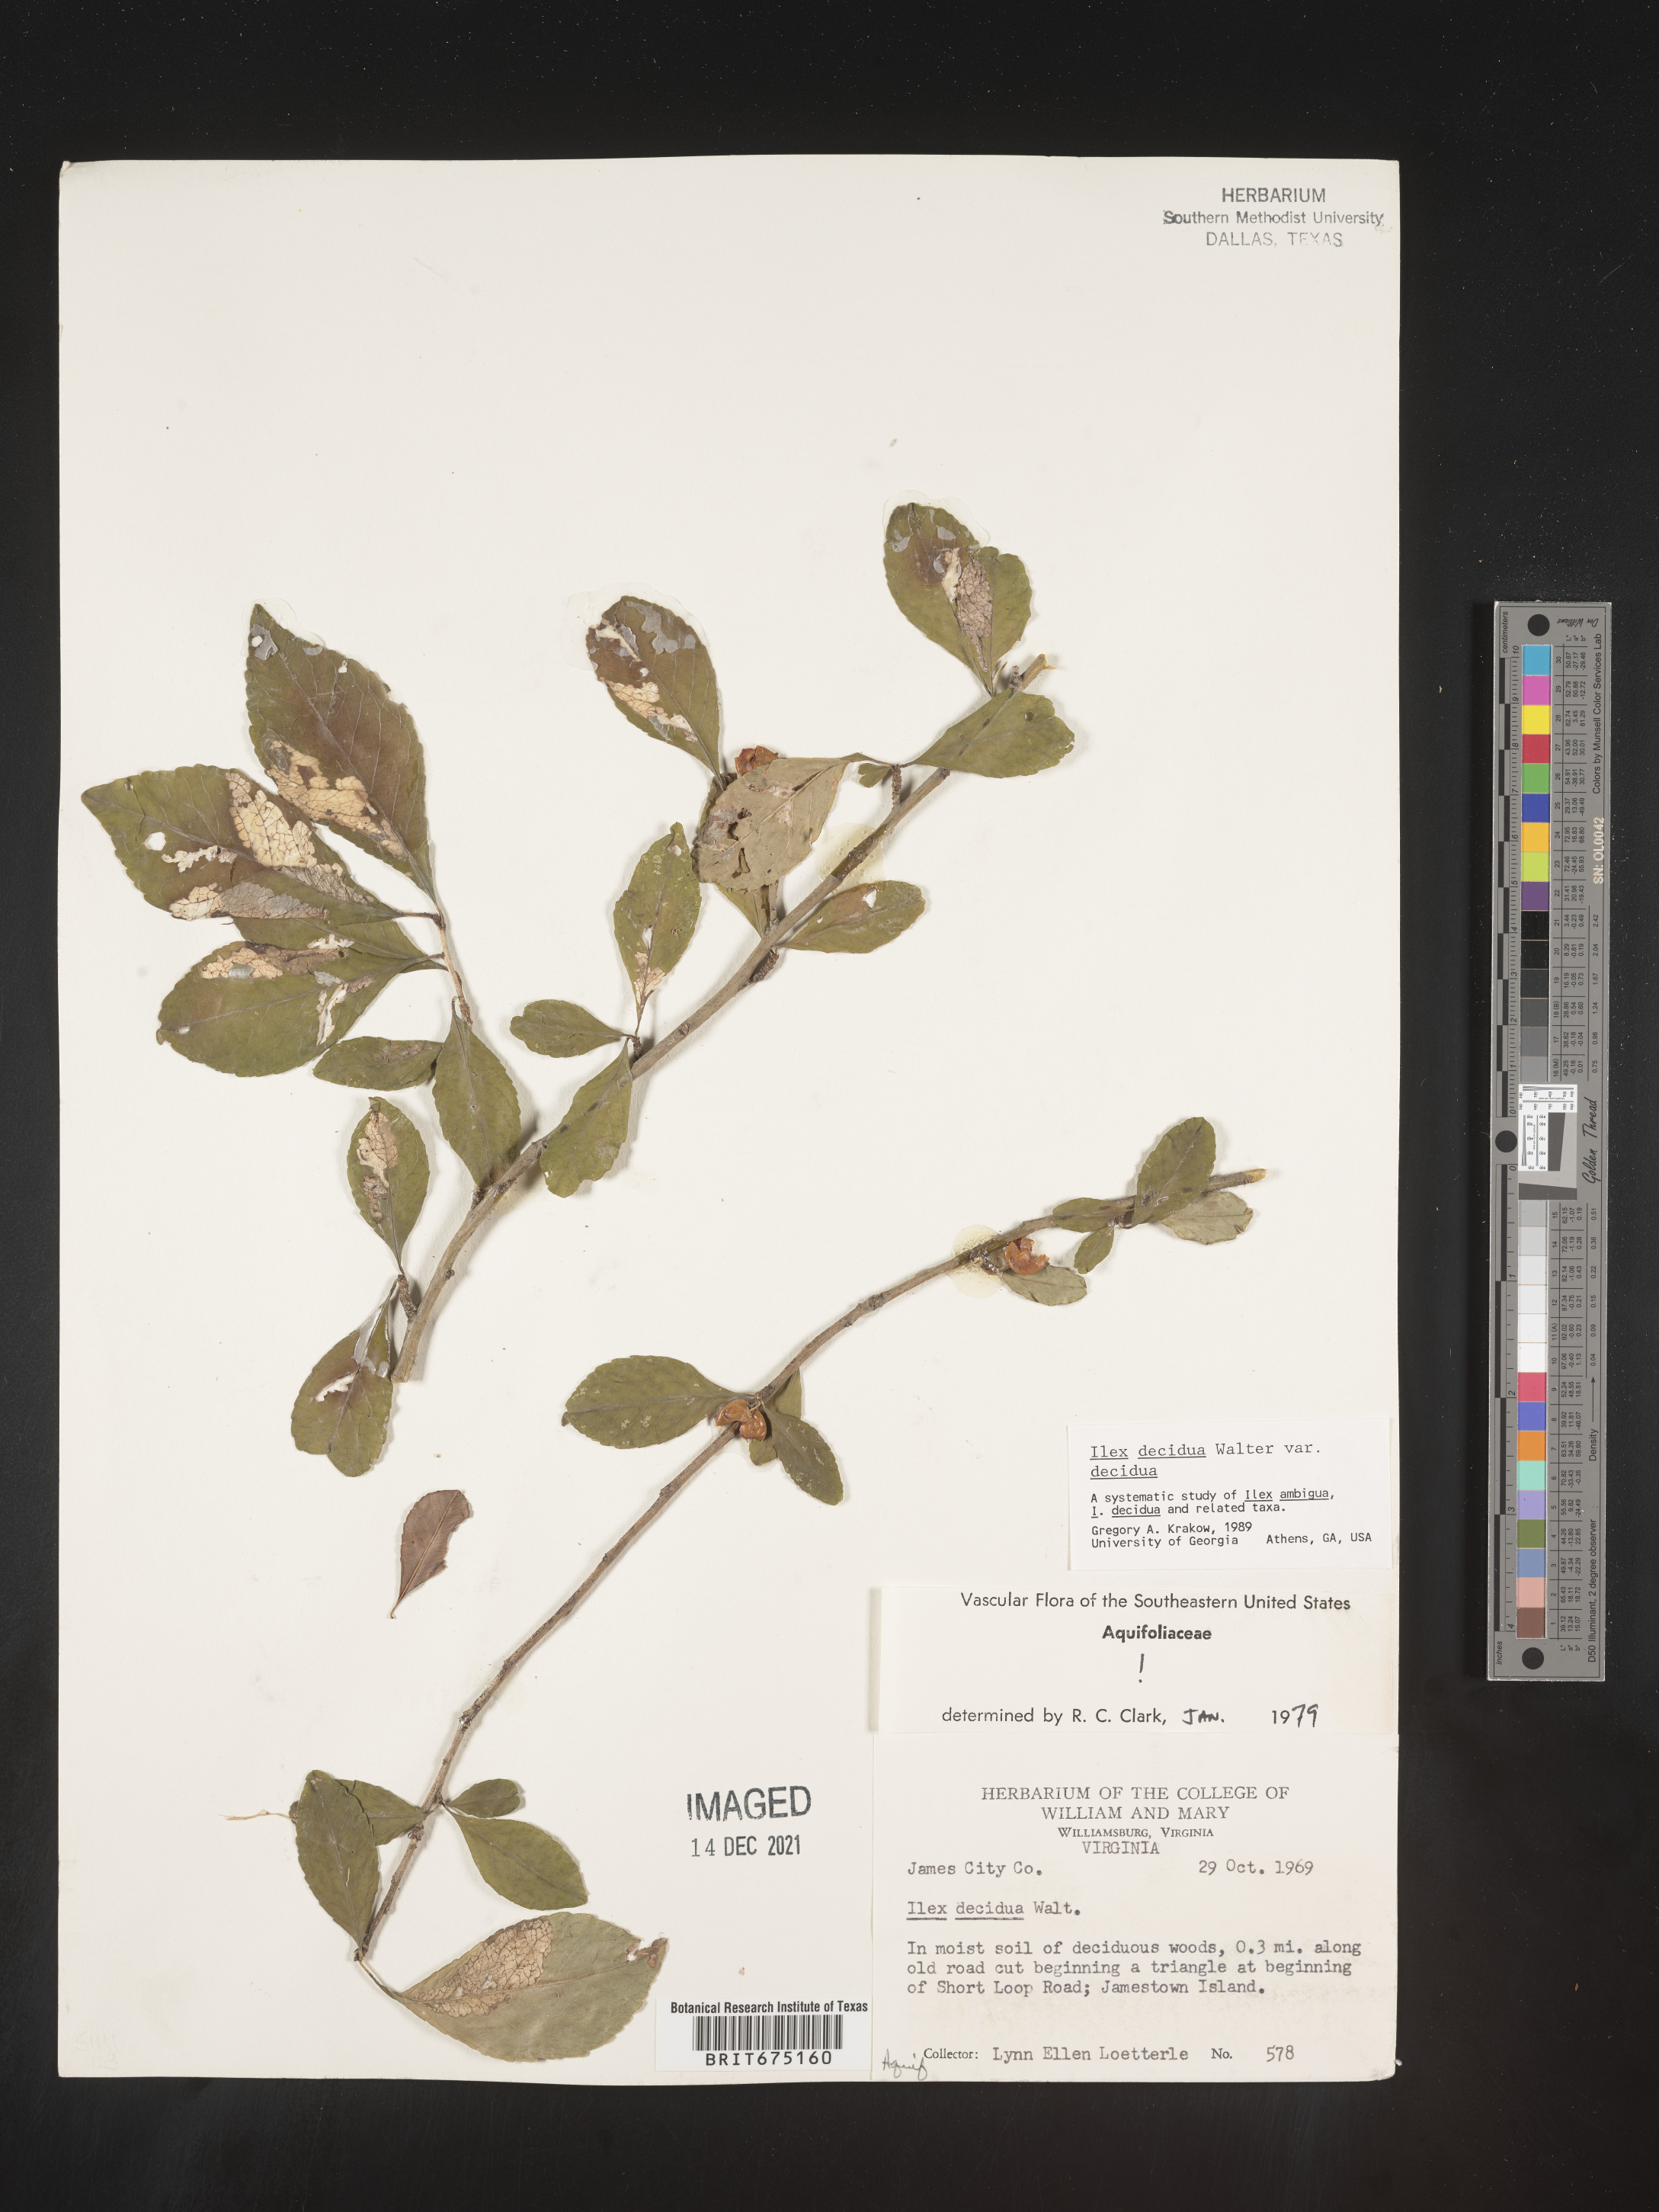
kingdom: Plantae
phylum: Tracheophyta
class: Magnoliopsida
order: Aquifoliales
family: Aquifoliaceae
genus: Ilex
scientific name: Ilex decidua
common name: Possum-haw
